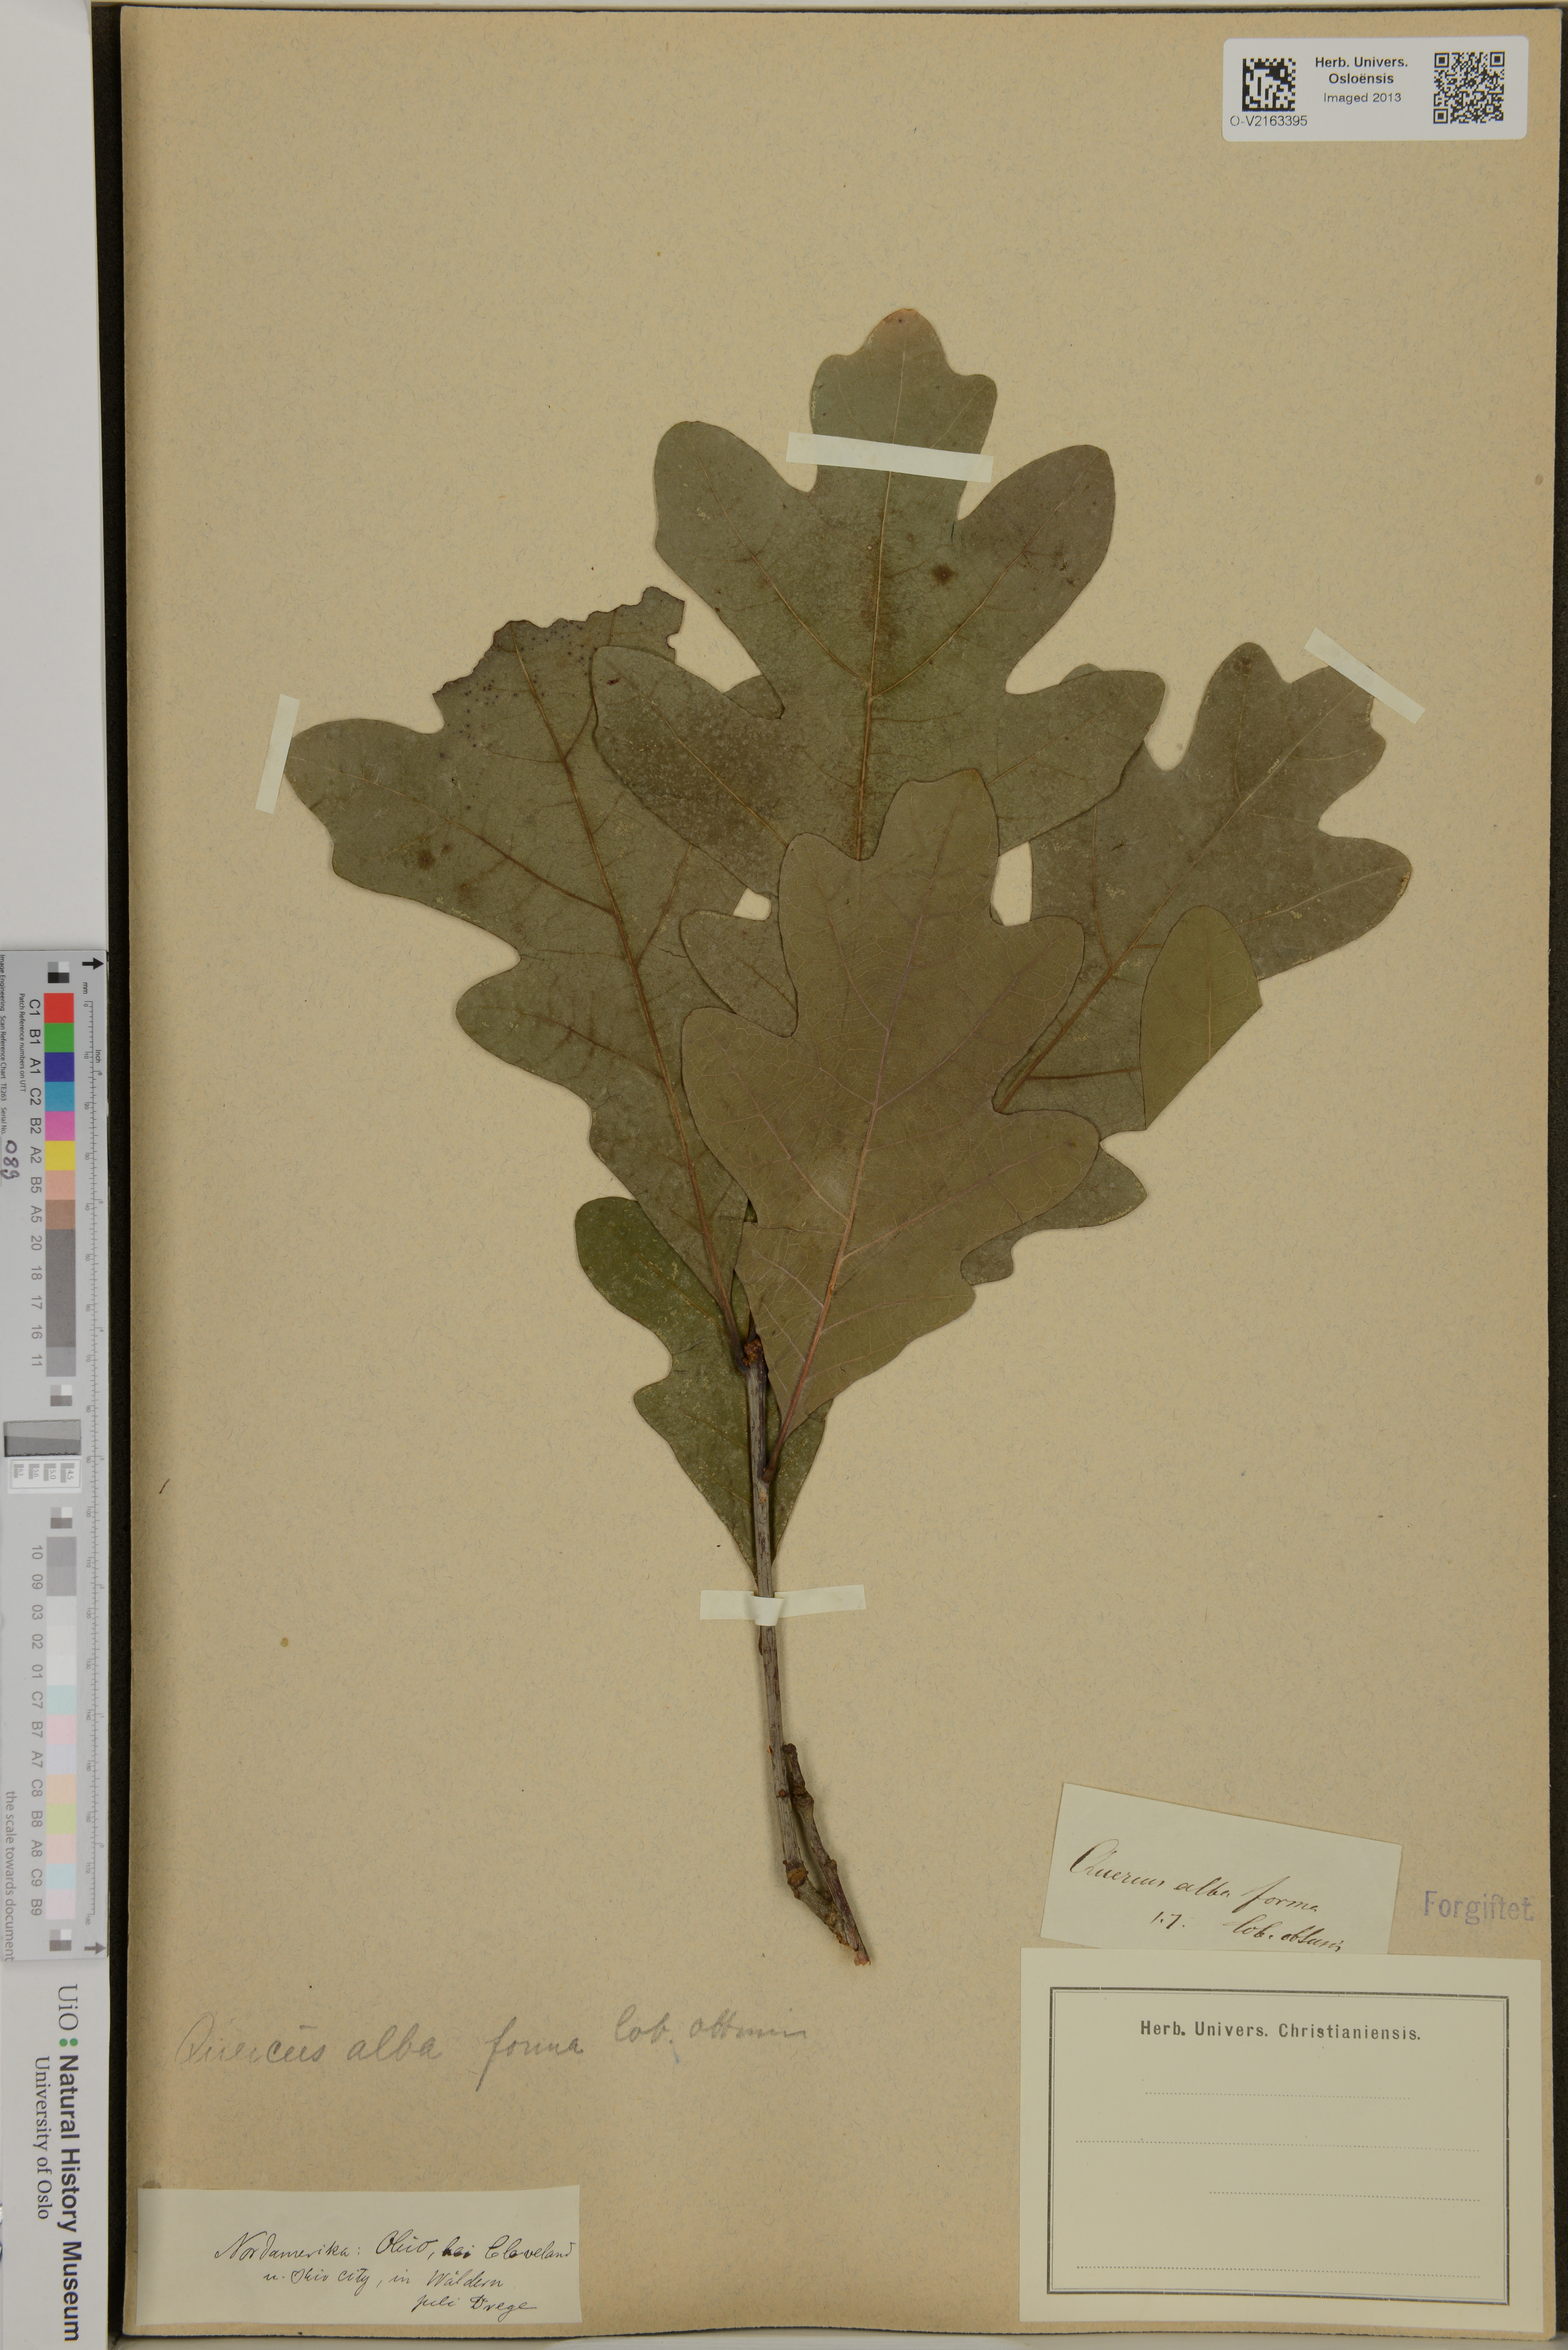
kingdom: Plantae
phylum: Tracheophyta
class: Magnoliopsida
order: Fagales
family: Fagaceae
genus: Quercus
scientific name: Quercus alba
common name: White oak
